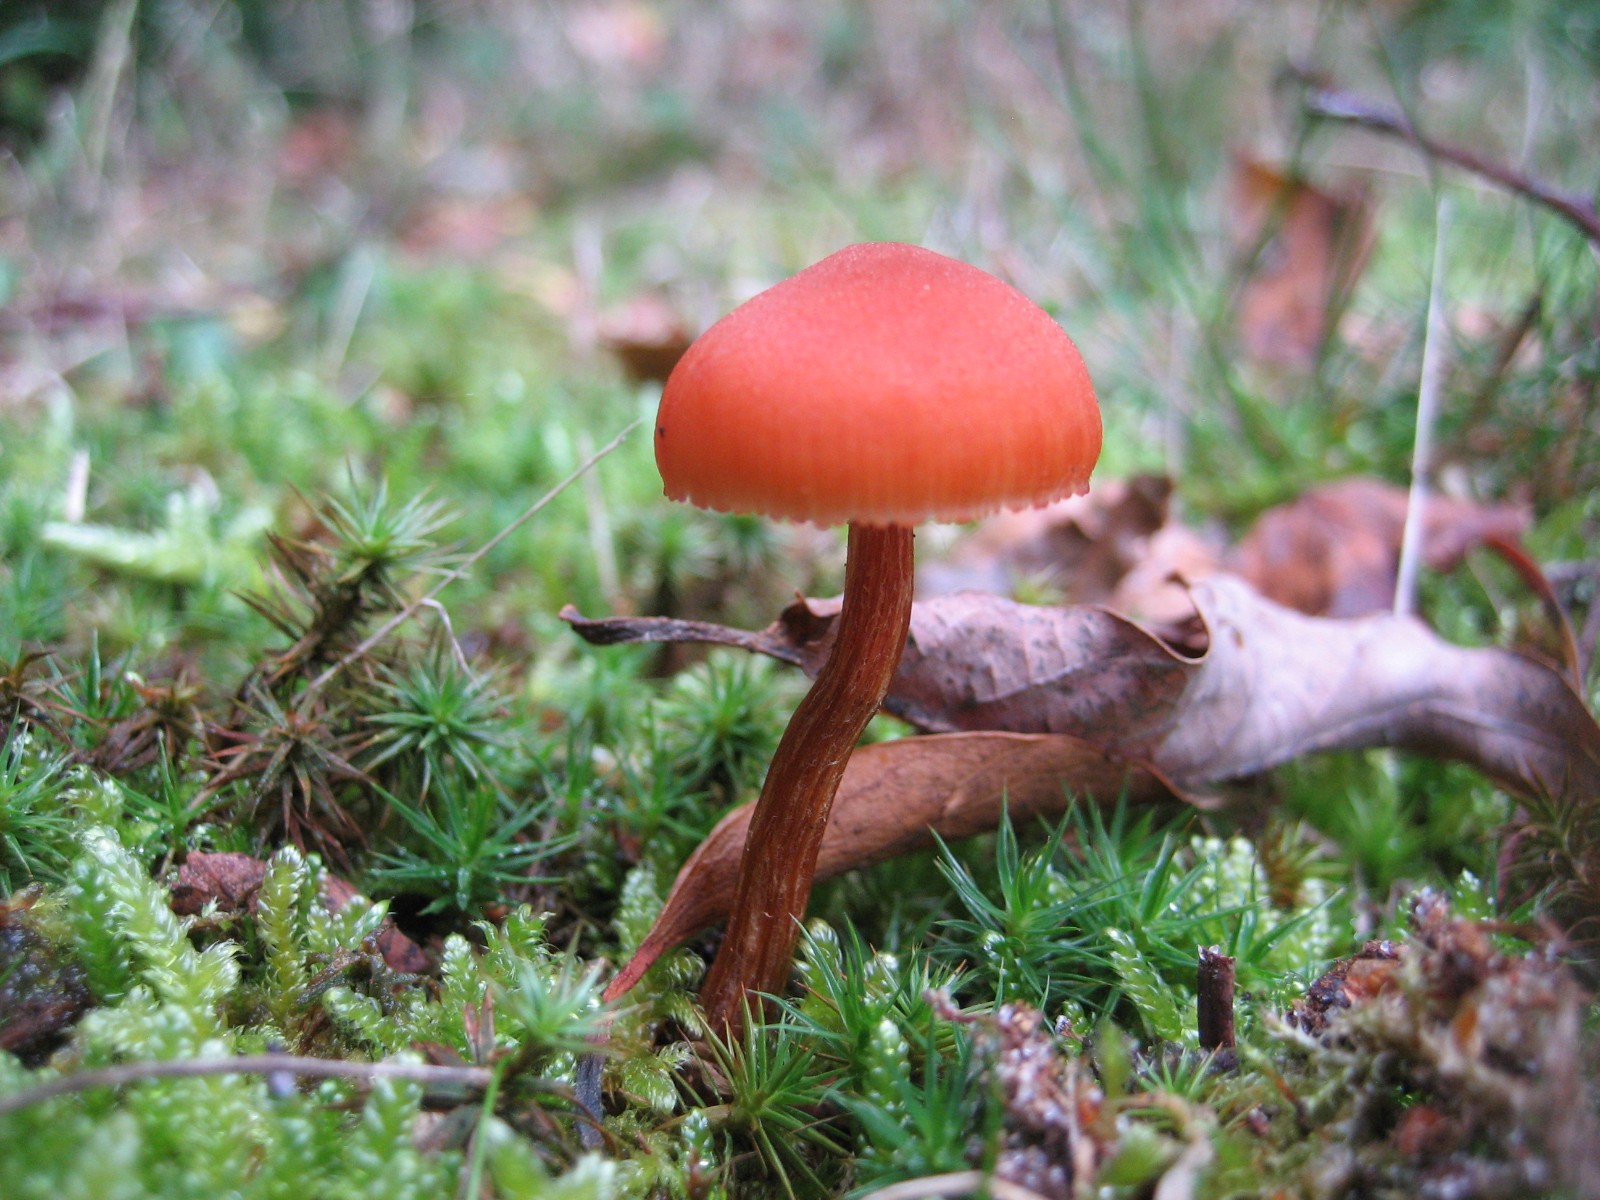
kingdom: Fungi
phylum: Basidiomycota
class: Agaricomycetes
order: Agaricales
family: Hydnangiaceae
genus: Laccaria
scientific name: Laccaria laccata
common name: rød ametysthat
